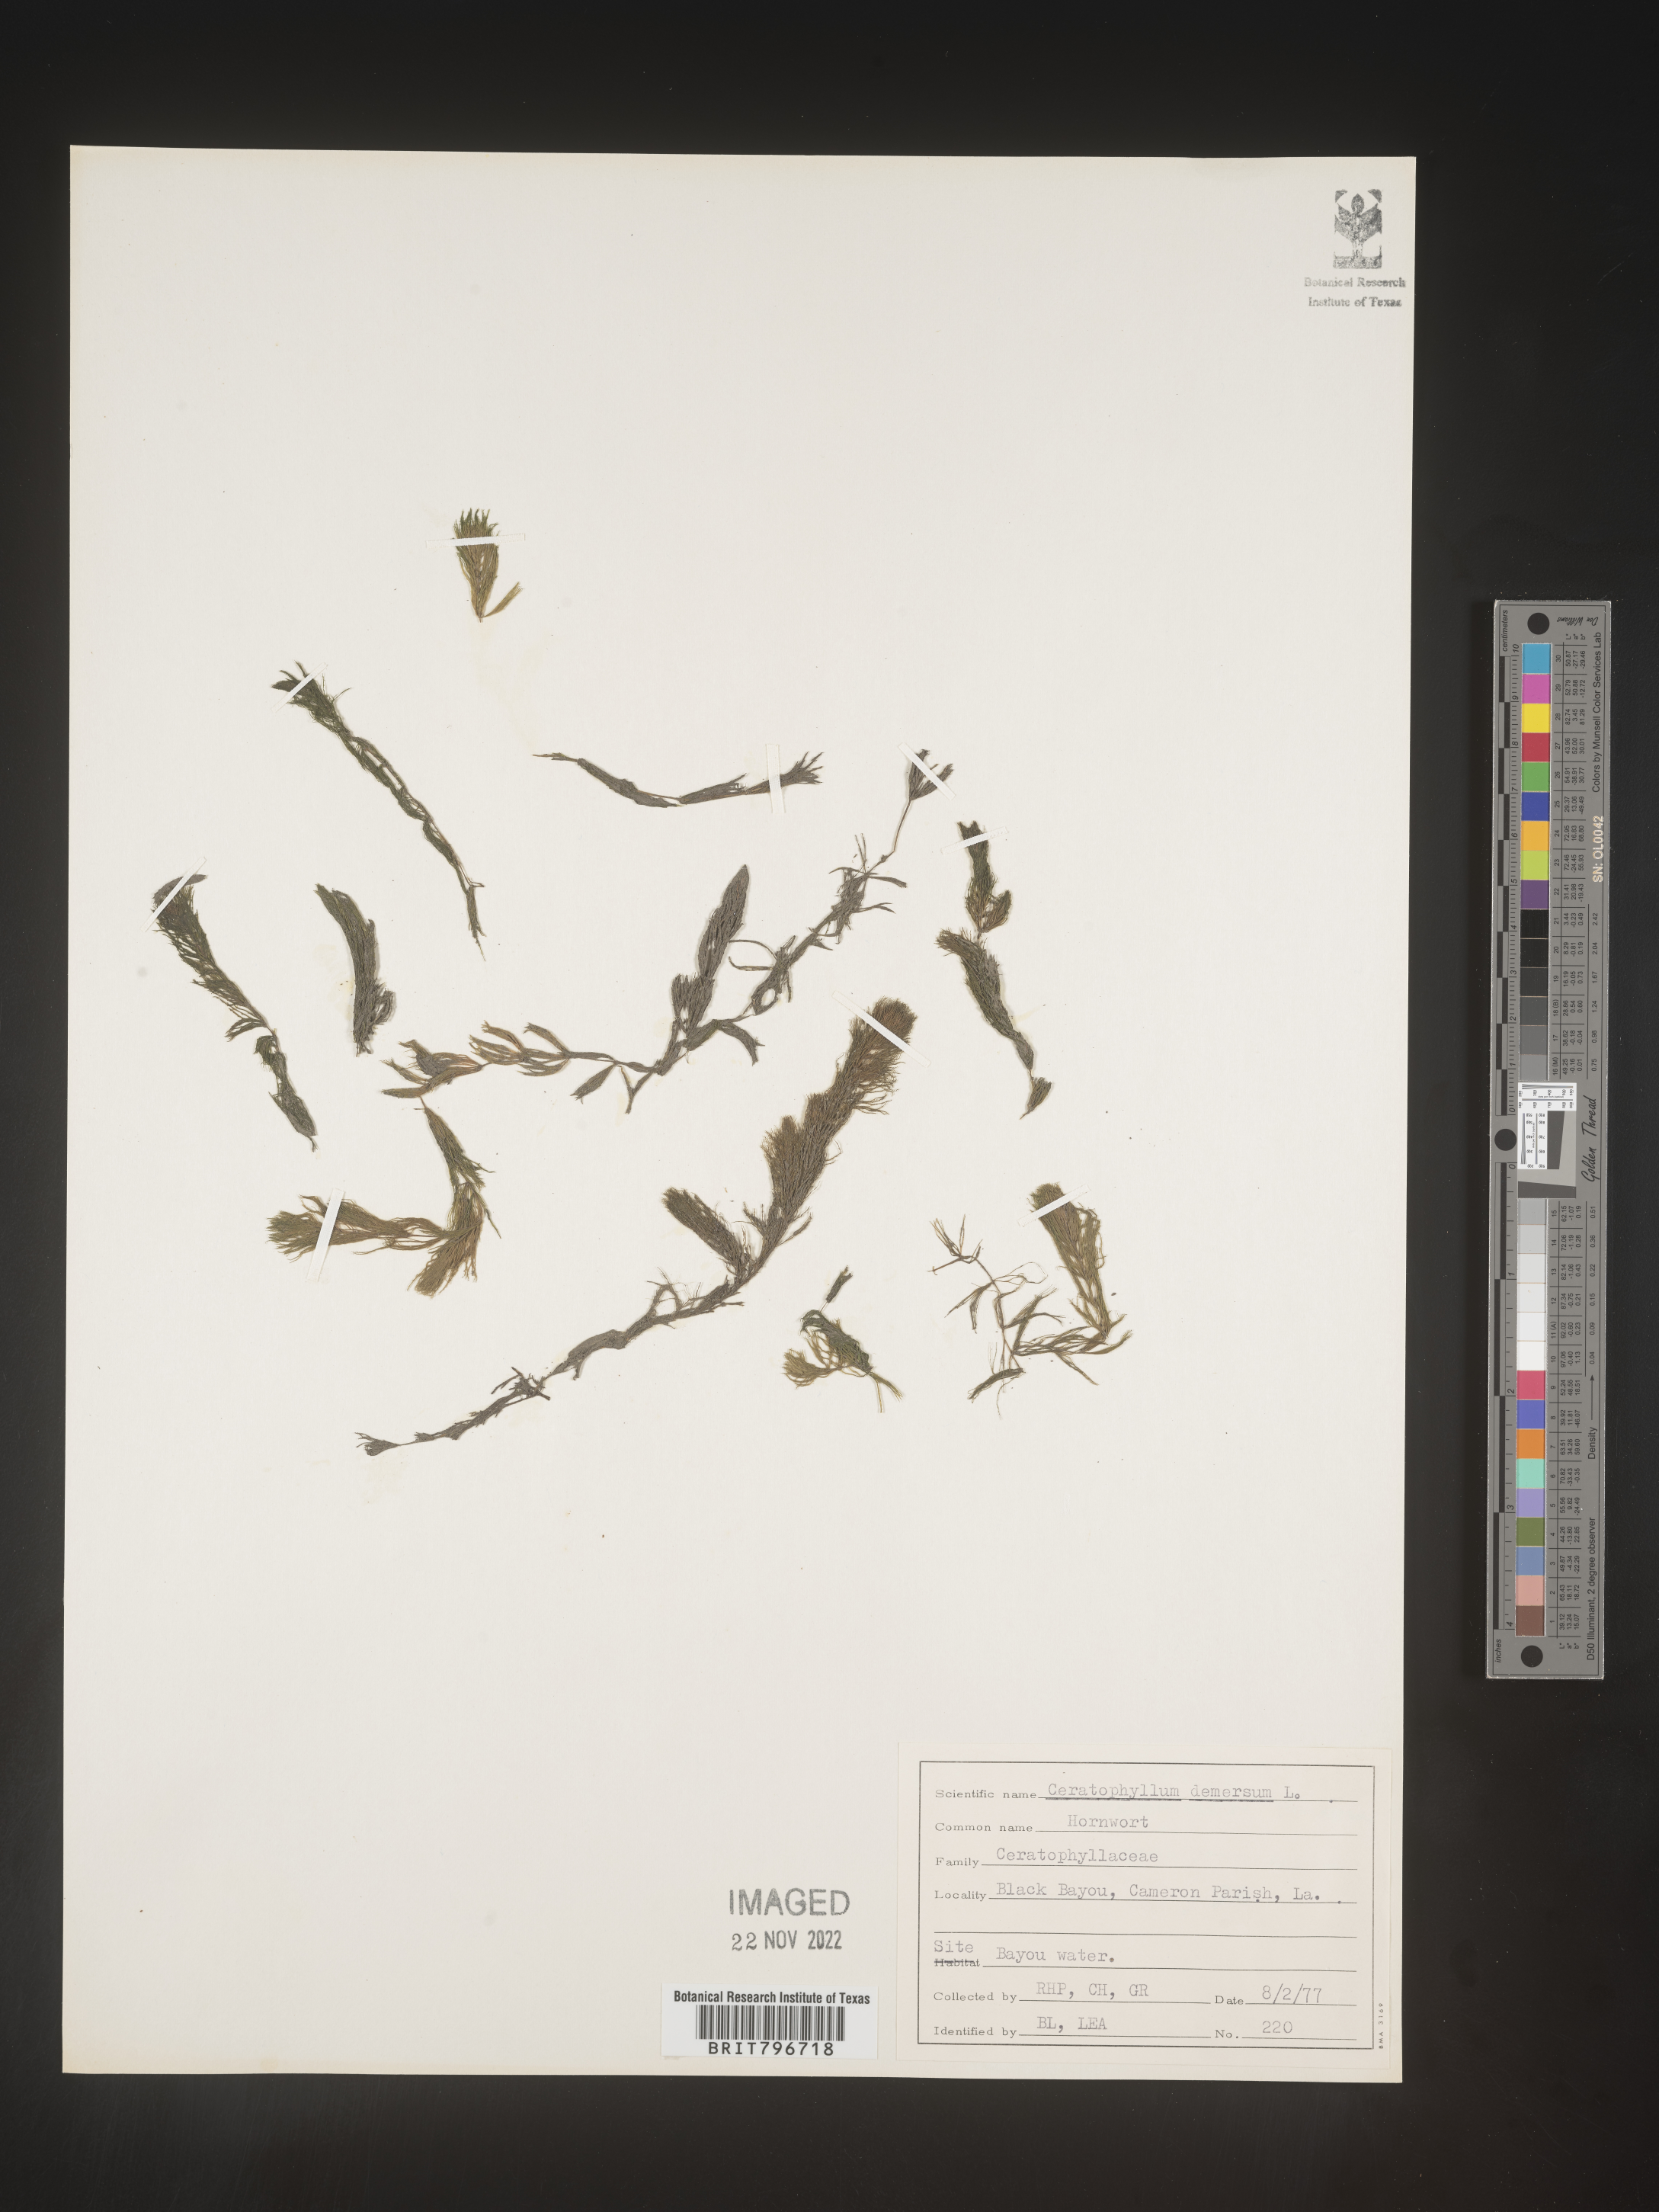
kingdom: Plantae
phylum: Tracheophyta
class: Magnoliopsida
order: Ceratophyllales
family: Ceratophyllaceae
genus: Ceratophyllum
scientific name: Ceratophyllum demersum
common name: Rigid hornwort
